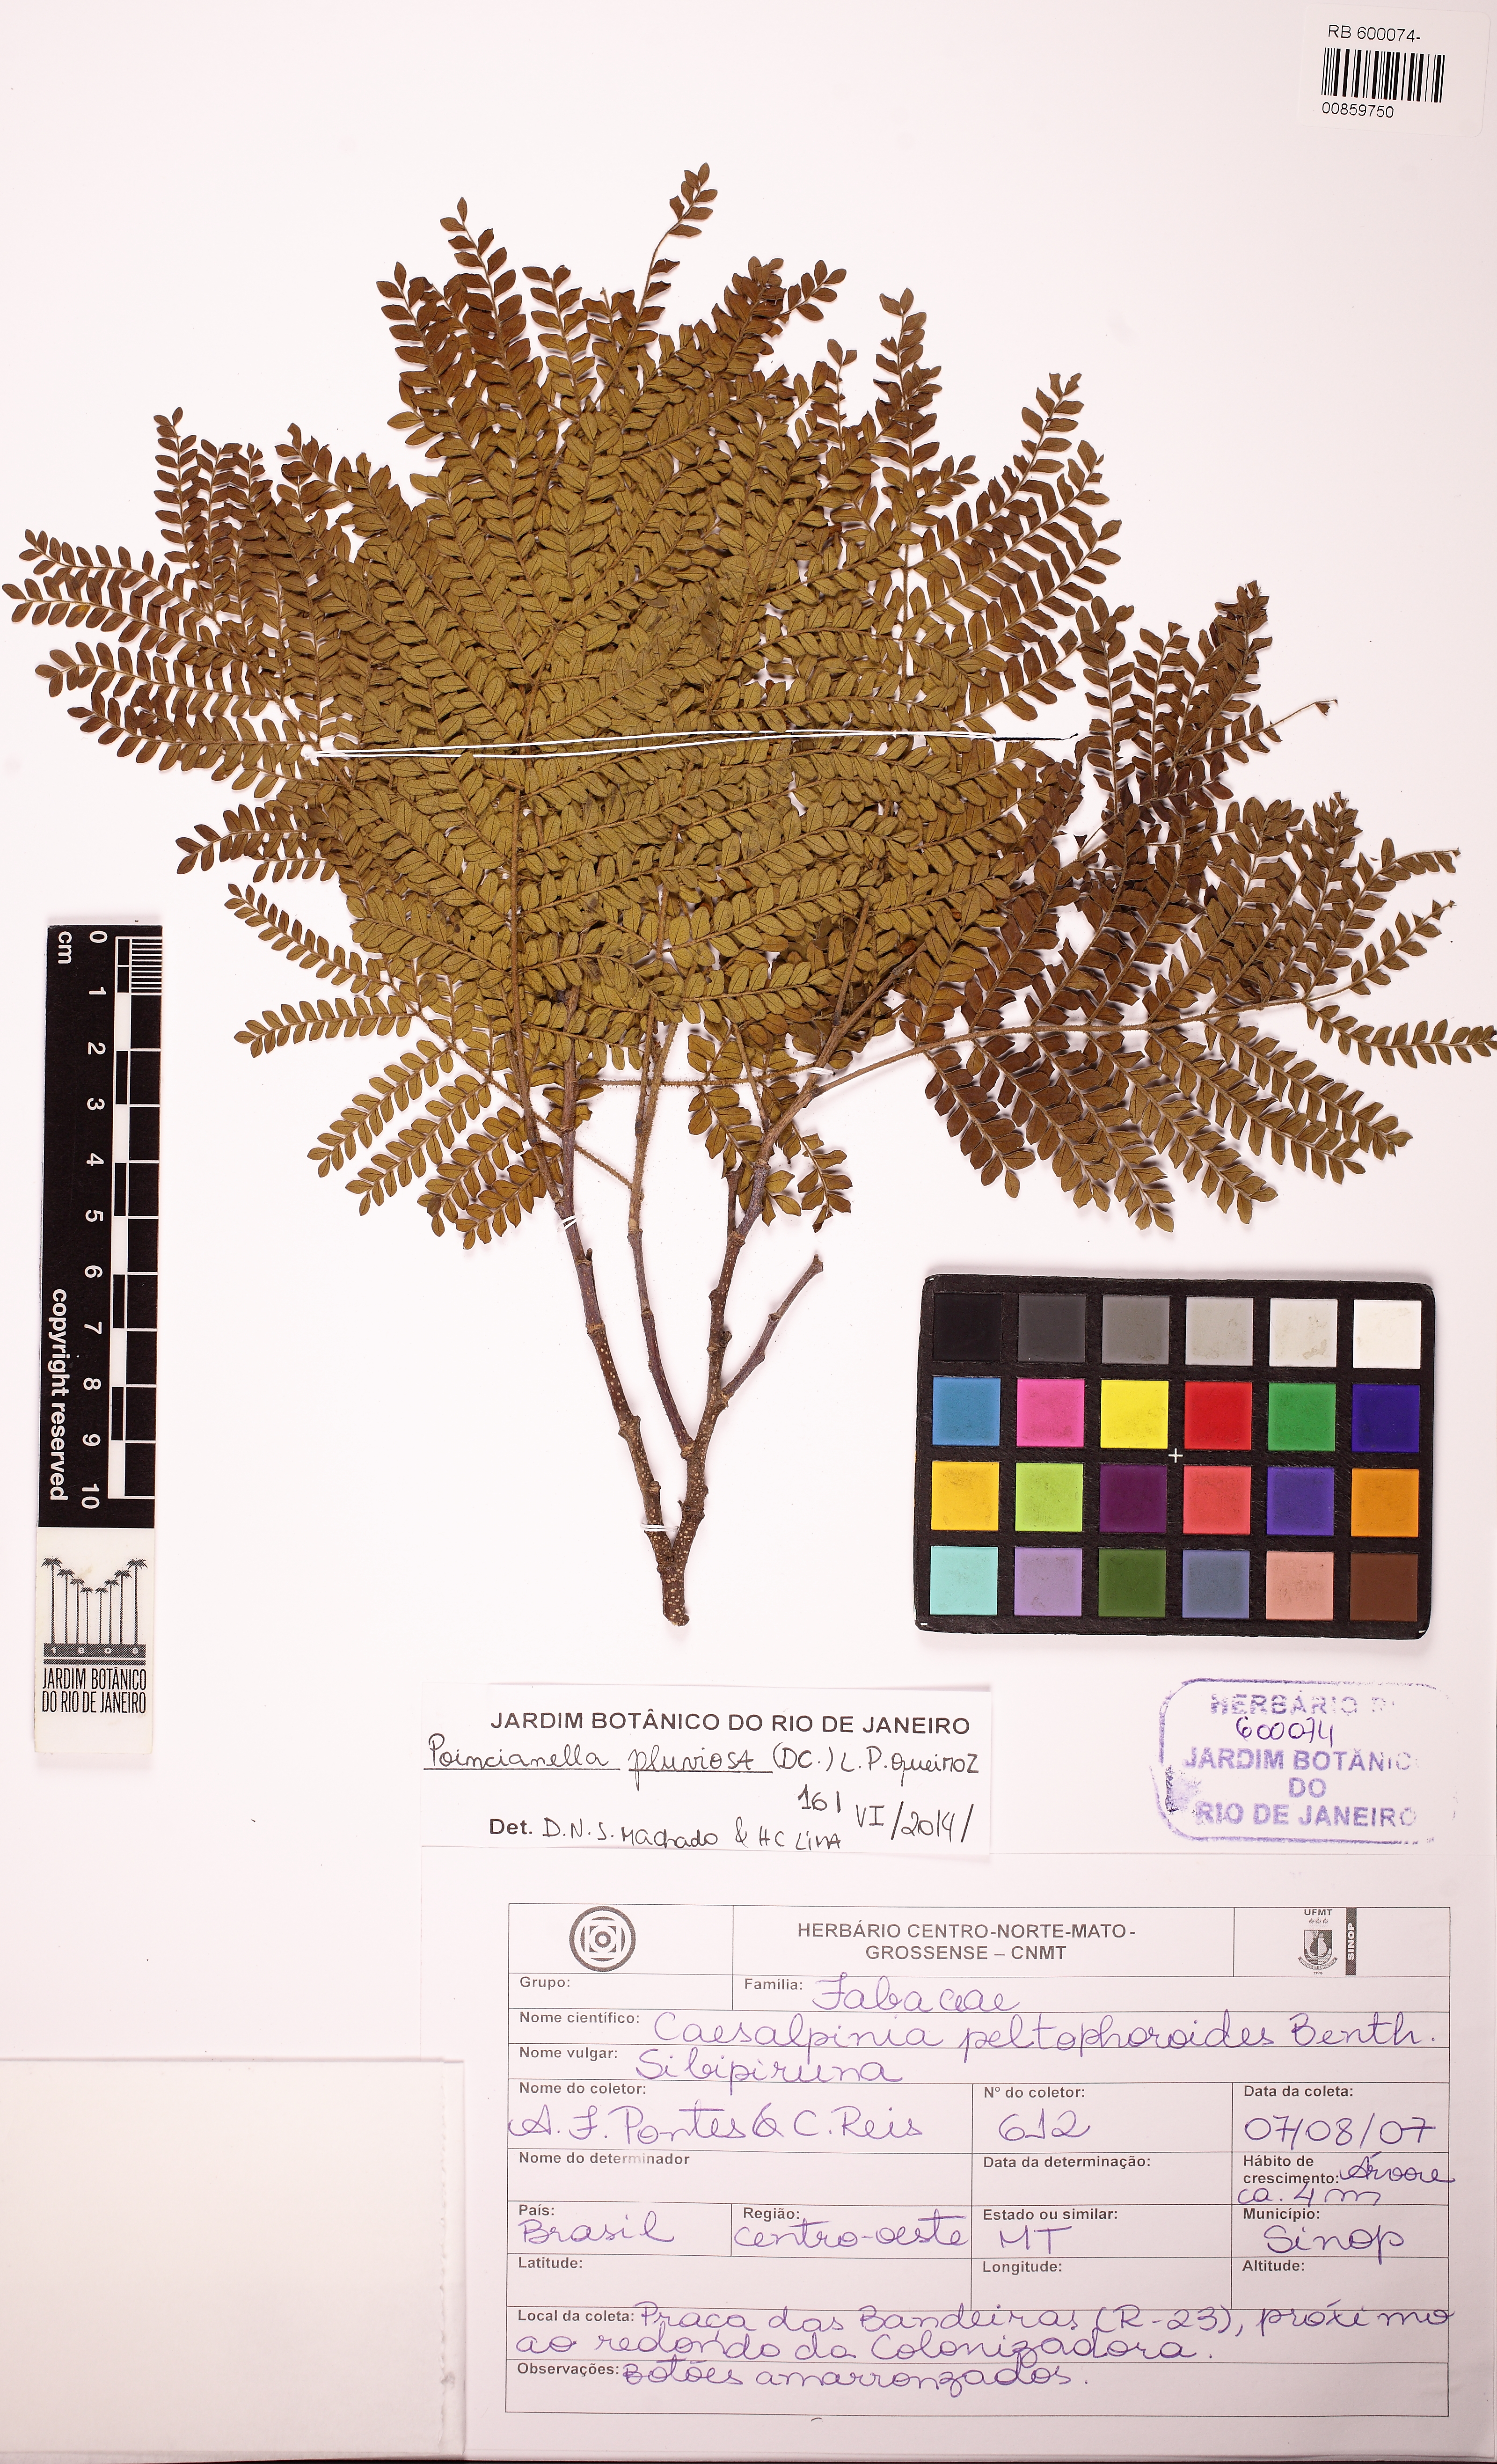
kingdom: Plantae
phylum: Tracheophyta
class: Magnoliopsida
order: Fabales
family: Fabaceae
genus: Cenostigma
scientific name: Cenostigma pluviosum
